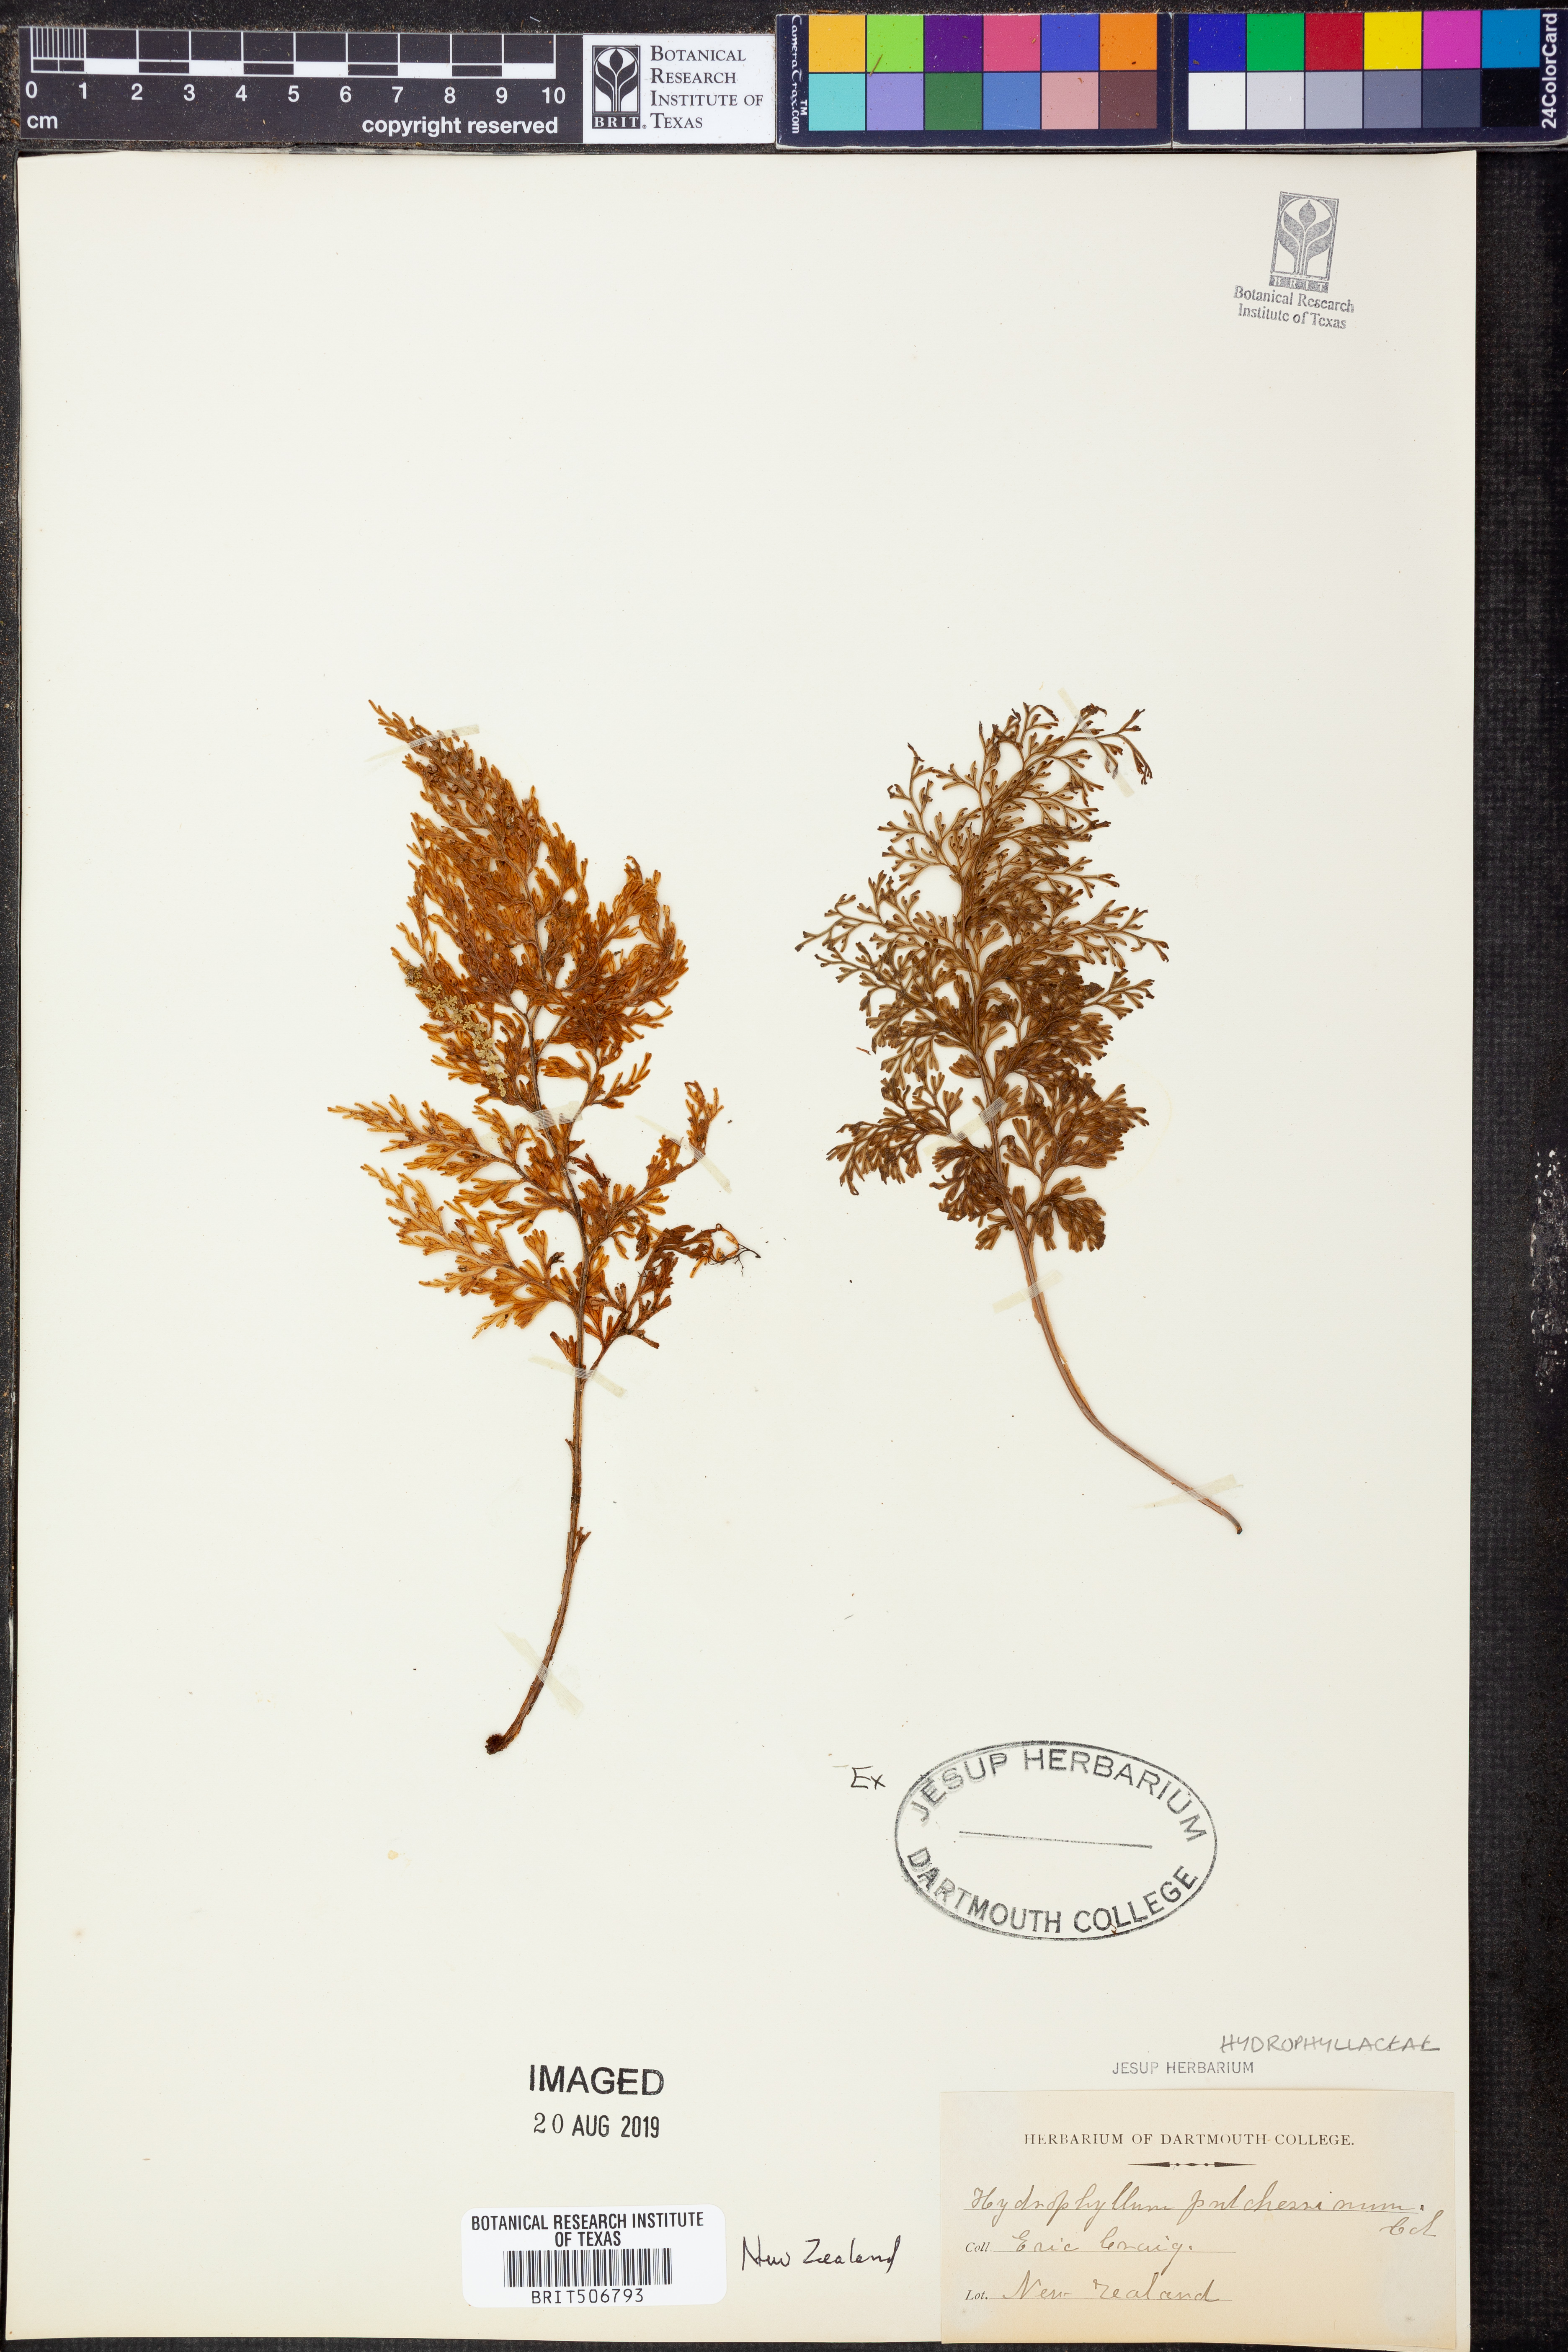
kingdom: Plantae
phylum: Tracheophyta
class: Polypodiopsida
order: Hymenophyllales
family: Hymenophyllaceae
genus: Hymenophyllum
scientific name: Hymenophyllum pulcherrimum
